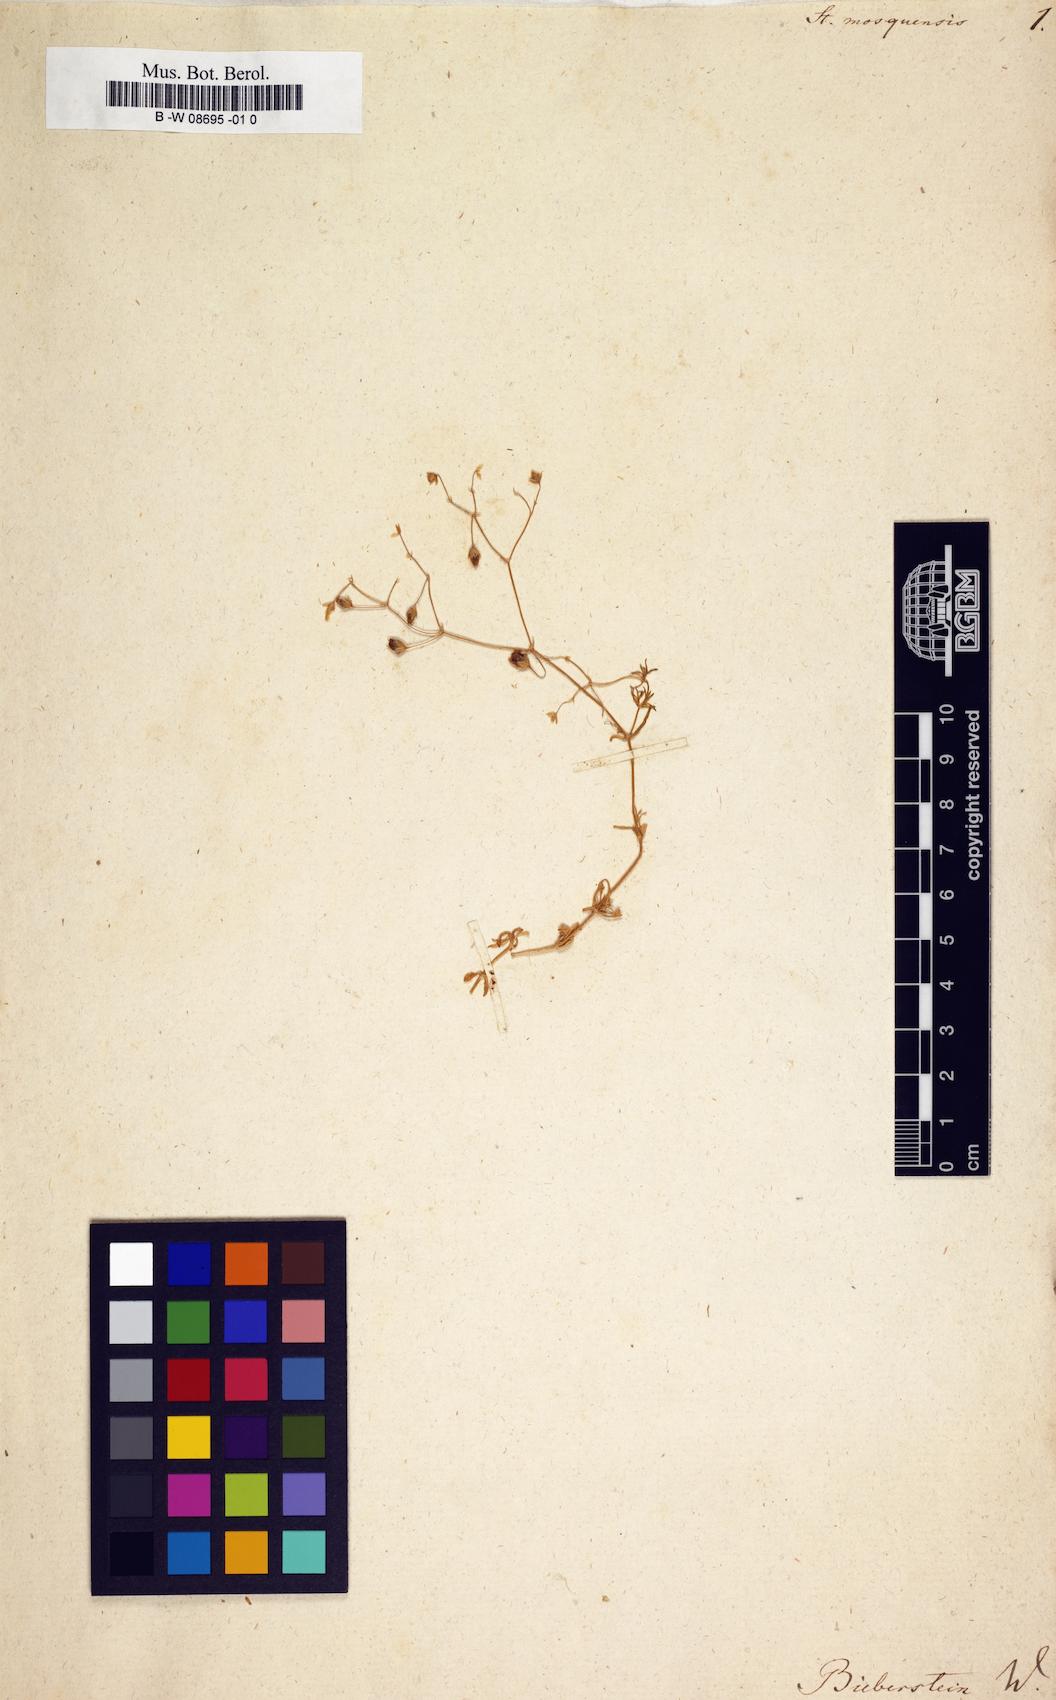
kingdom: Plantae
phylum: Tracheophyta
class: Magnoliopsida
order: Caryophyllales
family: Caryophyllaceae
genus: Stellaria
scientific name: Stellaria longifolia
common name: Long-leaved chickweed
